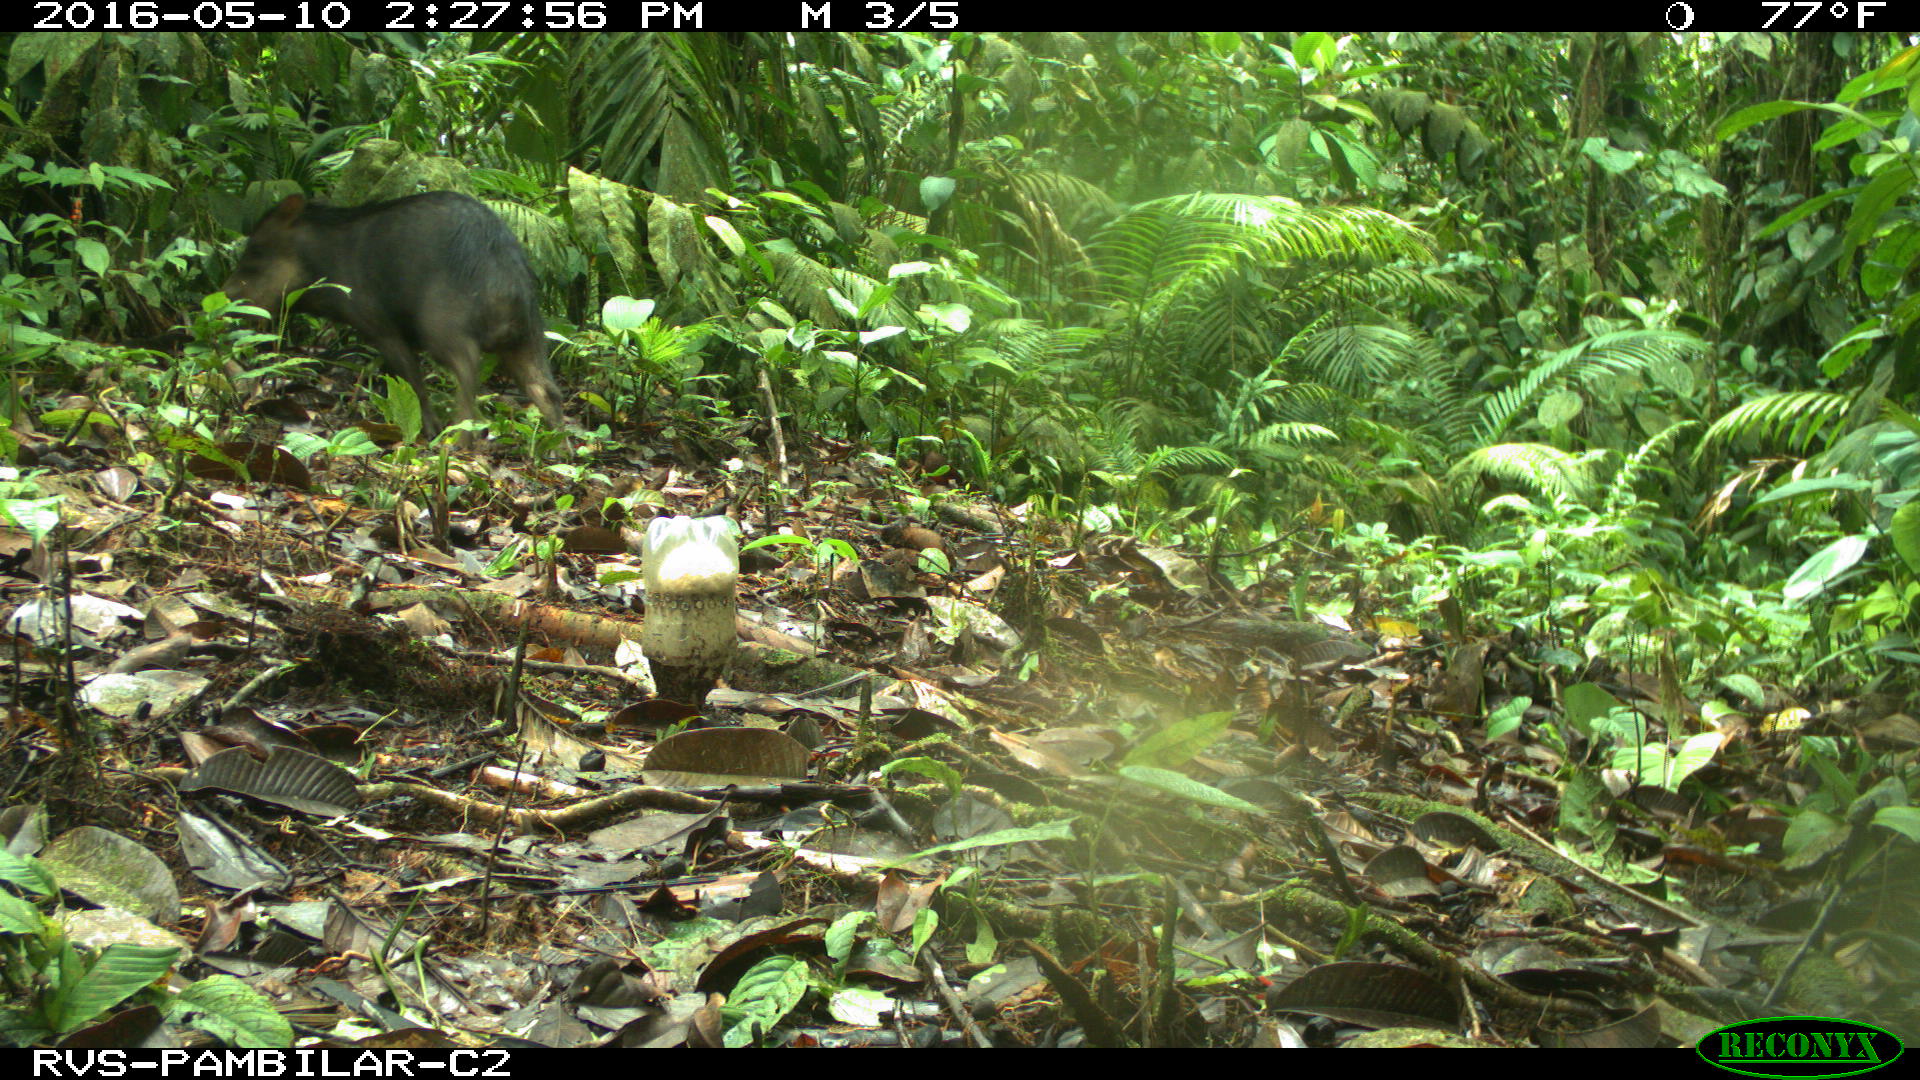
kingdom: Animalia
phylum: Chordata
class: Mammalia
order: Artiodactyla
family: Tayassuidae
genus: Tayassu
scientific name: Tayassu pecari
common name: White-lipped peccary
